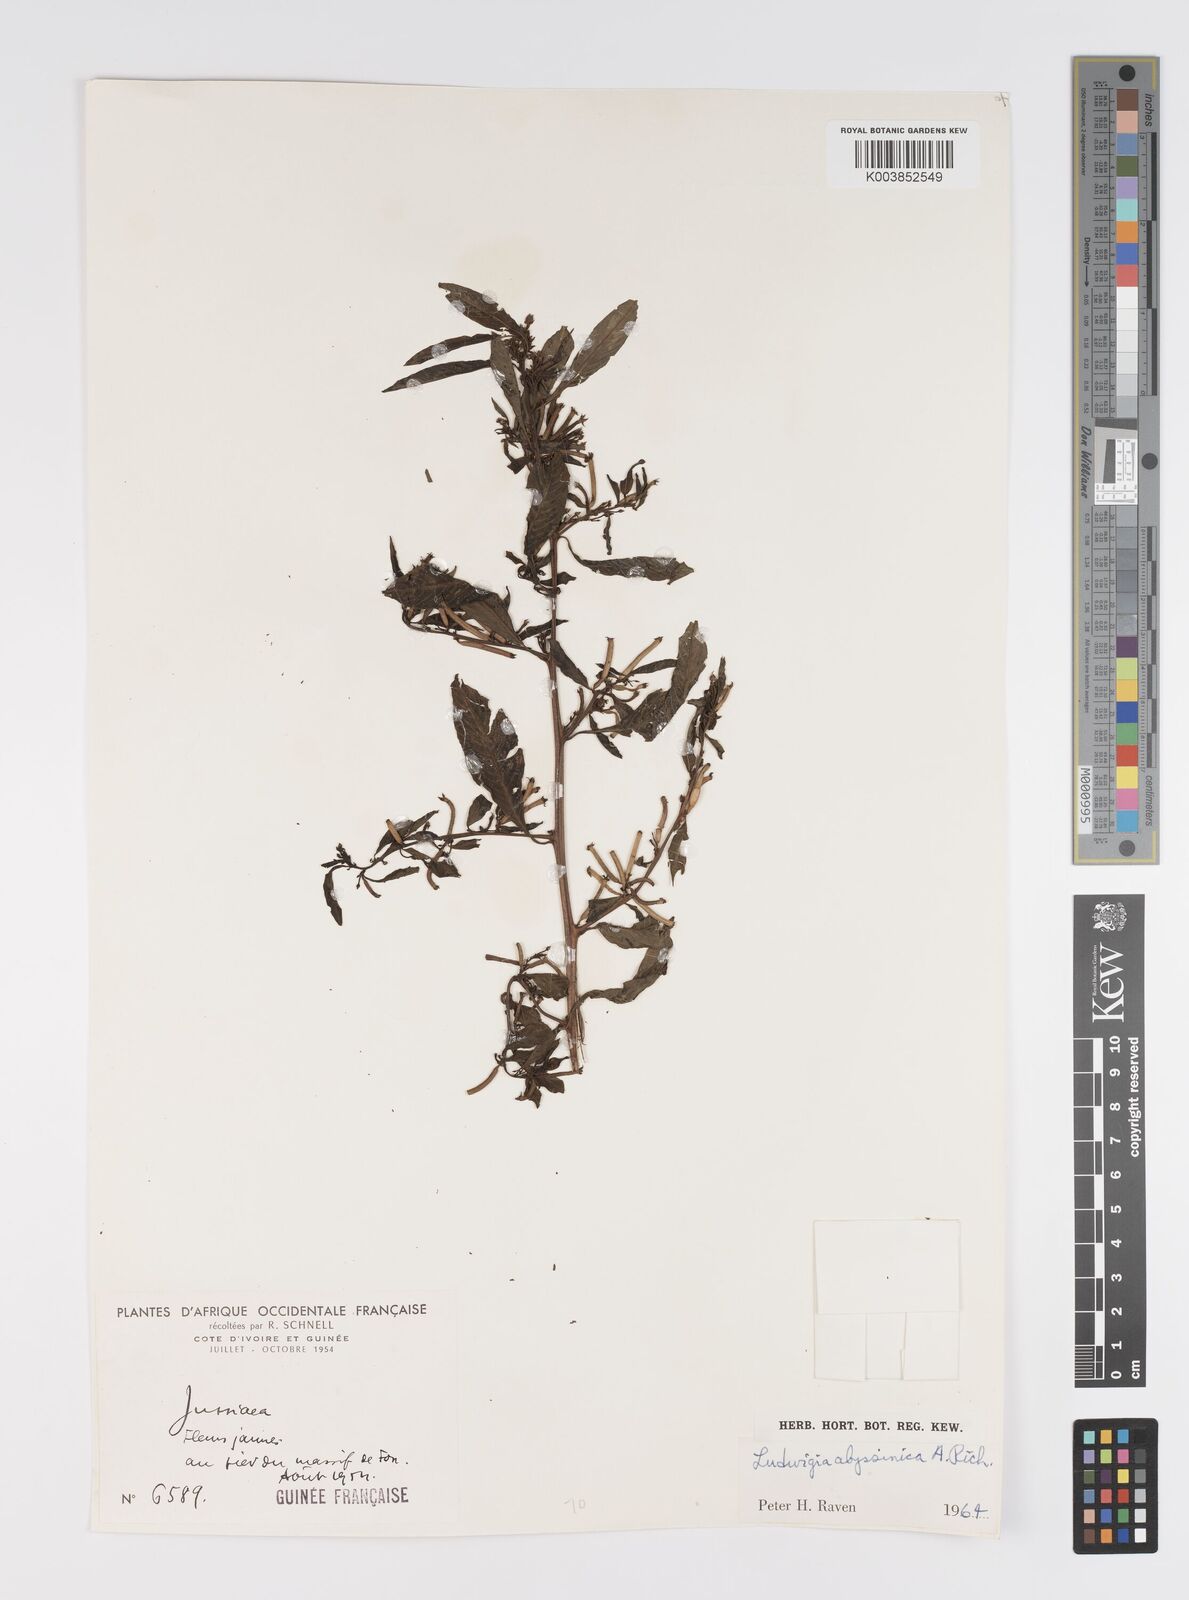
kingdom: Plantae
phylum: Tracheophyta
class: Magnoliopsida
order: Myrtales
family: Onagraceae
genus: Ludwigia
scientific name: Ludwigia abyssinica
